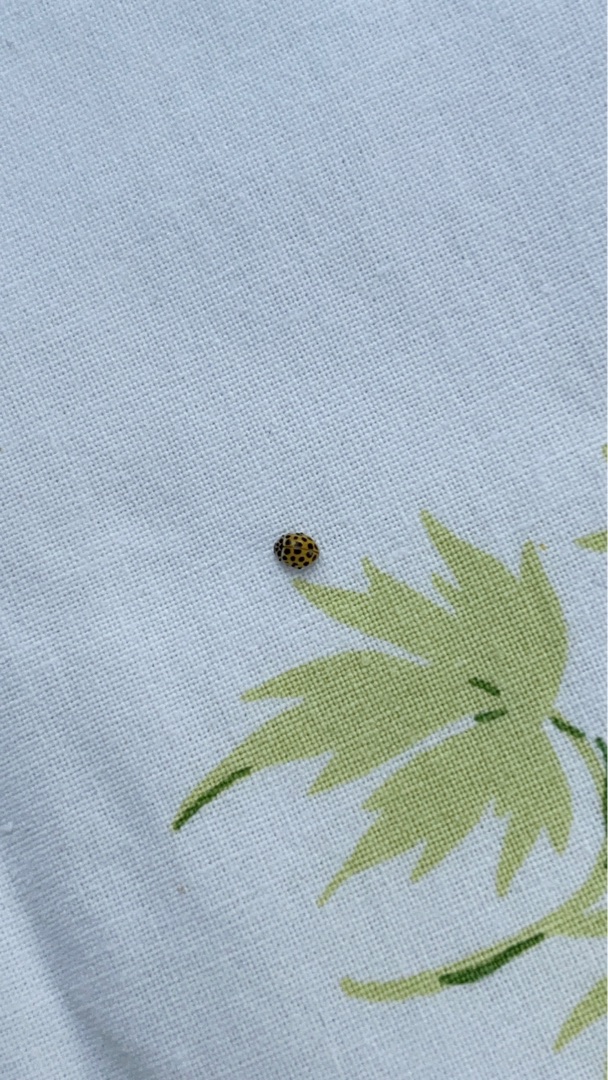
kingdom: Animalia
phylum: Arthropoda
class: Insecta
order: Coleoptera
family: Coccinellidae
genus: Psyllobora
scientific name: Psyllobora vigintiduopunctata
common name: Toogtyveplettet mariehøne
